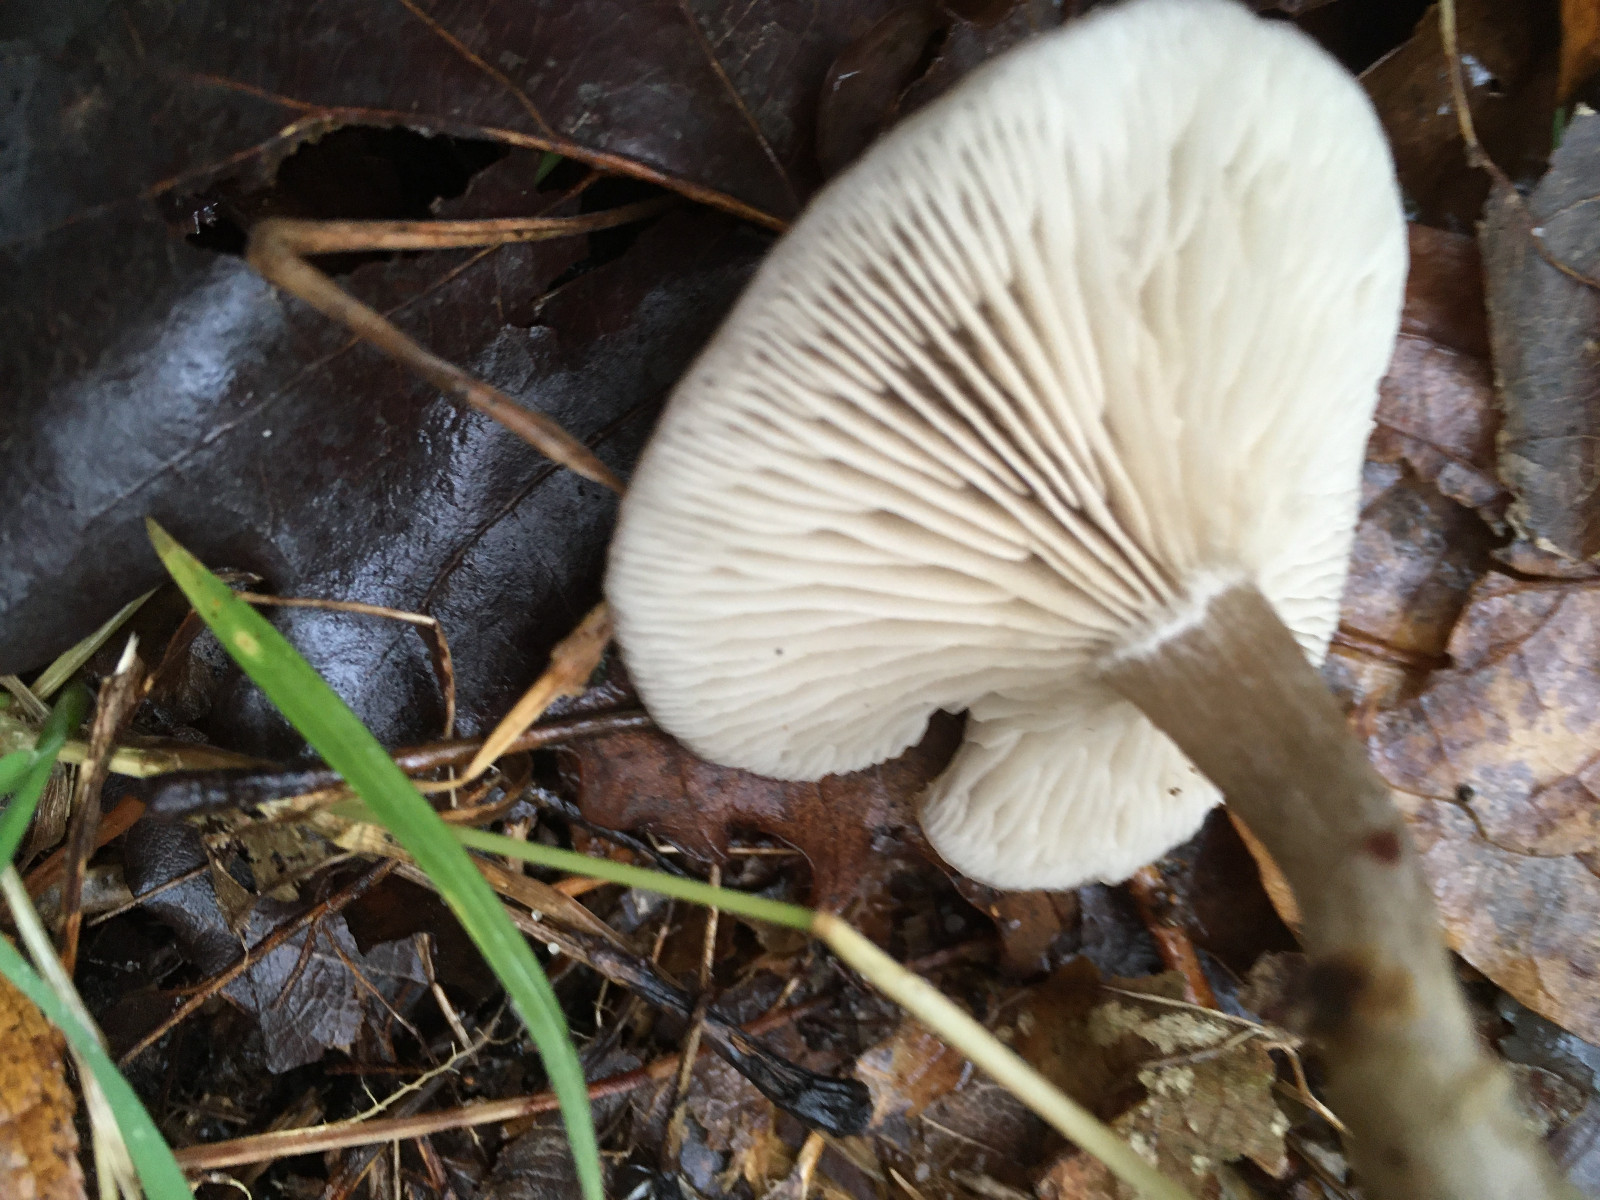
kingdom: Fungi
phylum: Basidiomycota
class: Agaricomycetes
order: Agaricales
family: Tricholomataceae
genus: Clitocybe
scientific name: Clitocybe
